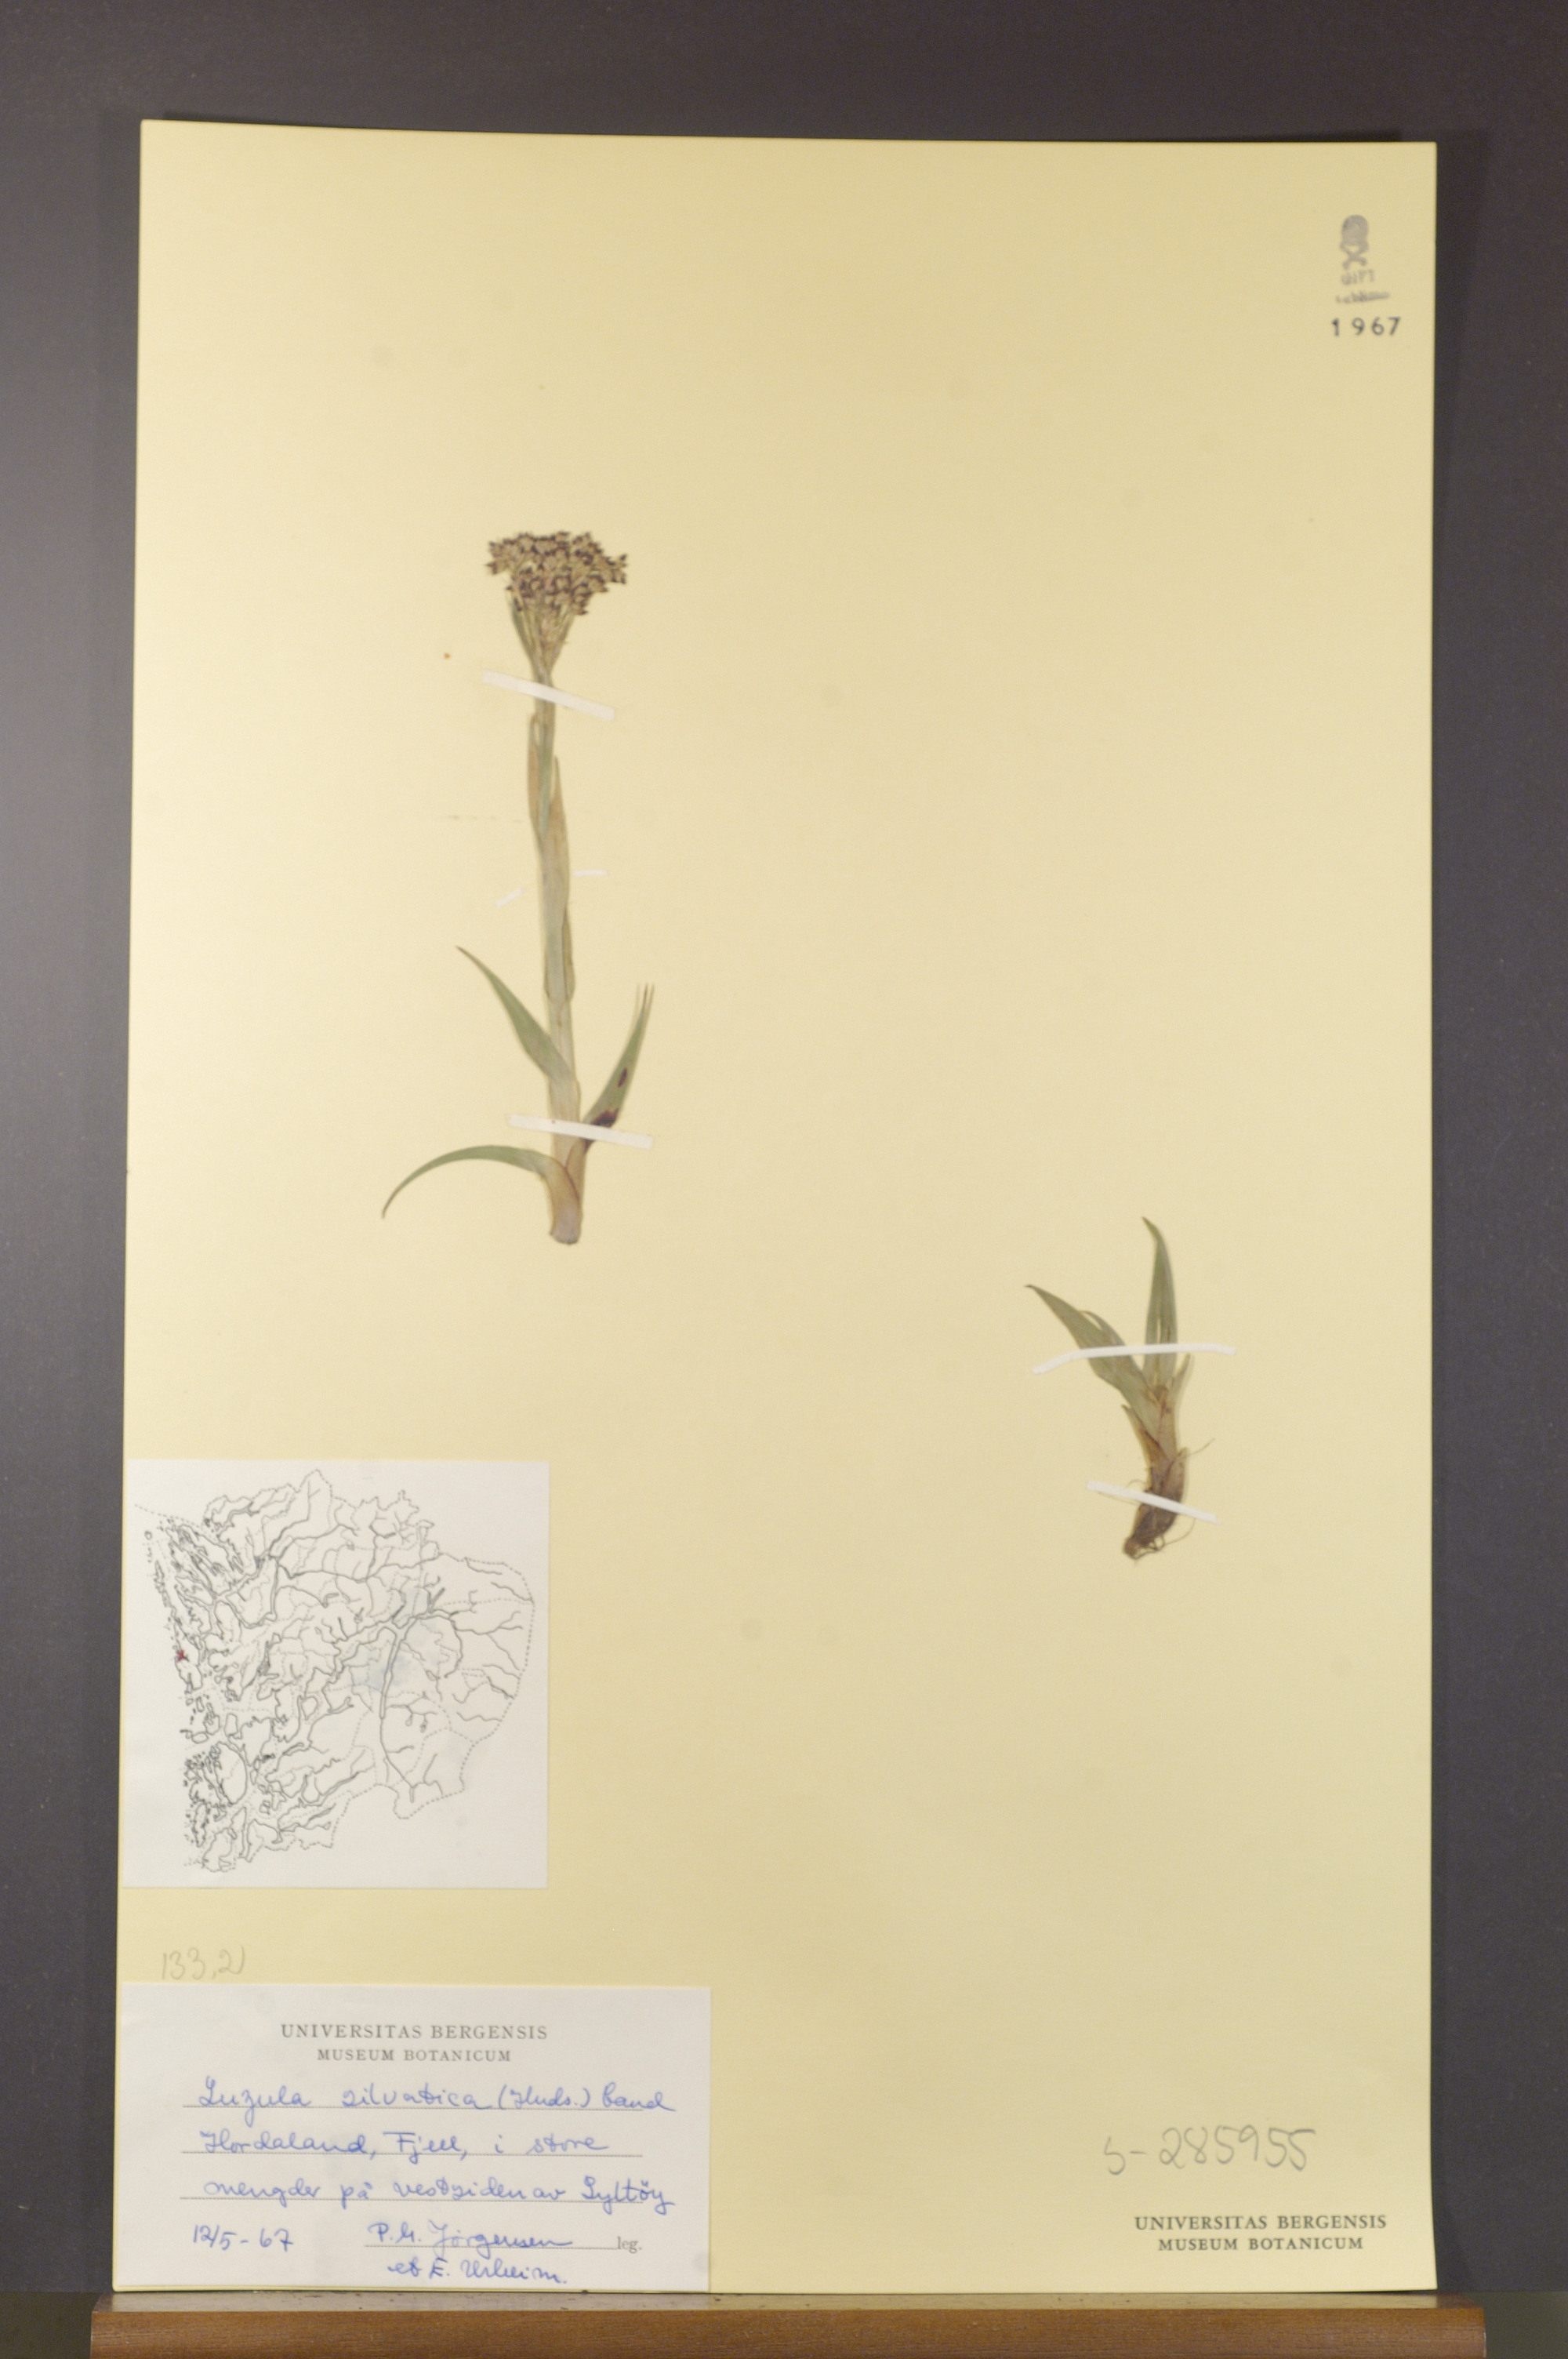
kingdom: Plantae
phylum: Tracheophyta
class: Liliopsida
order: Poales
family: Juncaceae
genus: Luzula
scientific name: Luzula sylvatica
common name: Great wood-rush
